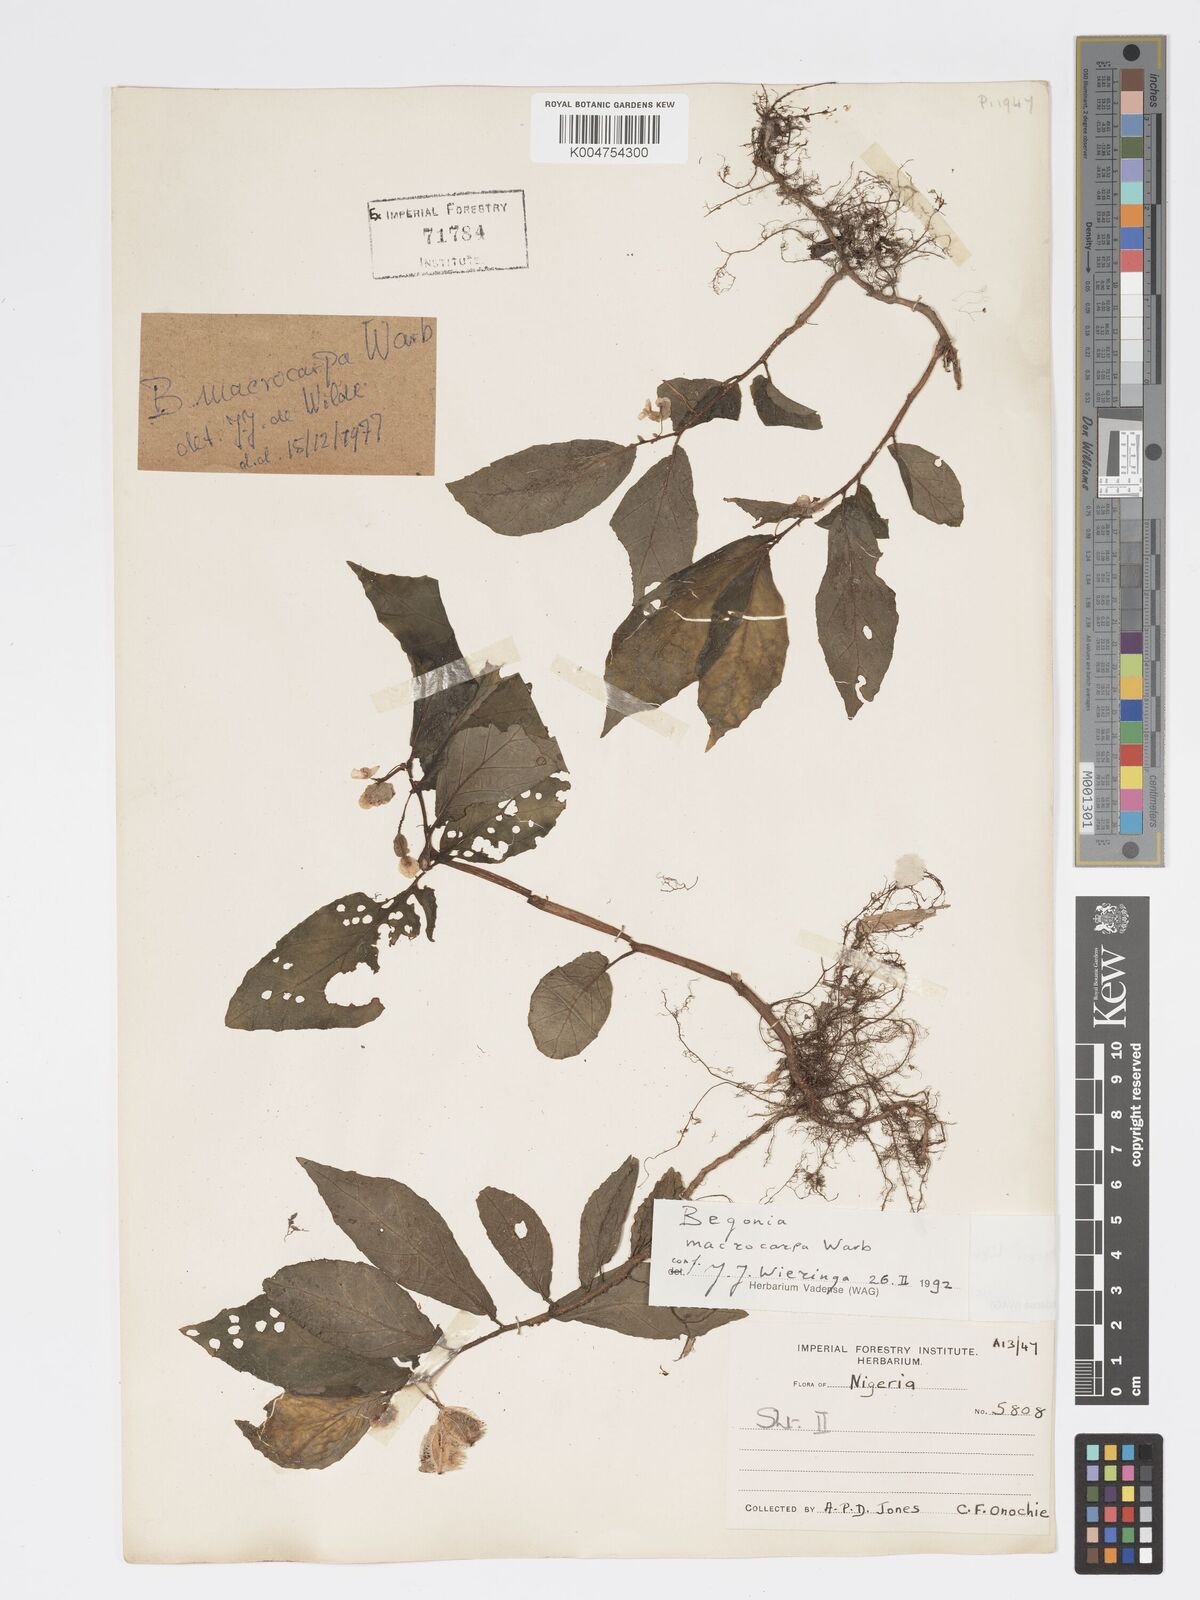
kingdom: Plantae
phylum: Tracheophyta
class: Magnoliopsida
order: Cucurbitales
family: Begoniaceae
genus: Begonia
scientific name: Begonia macrocarpa
